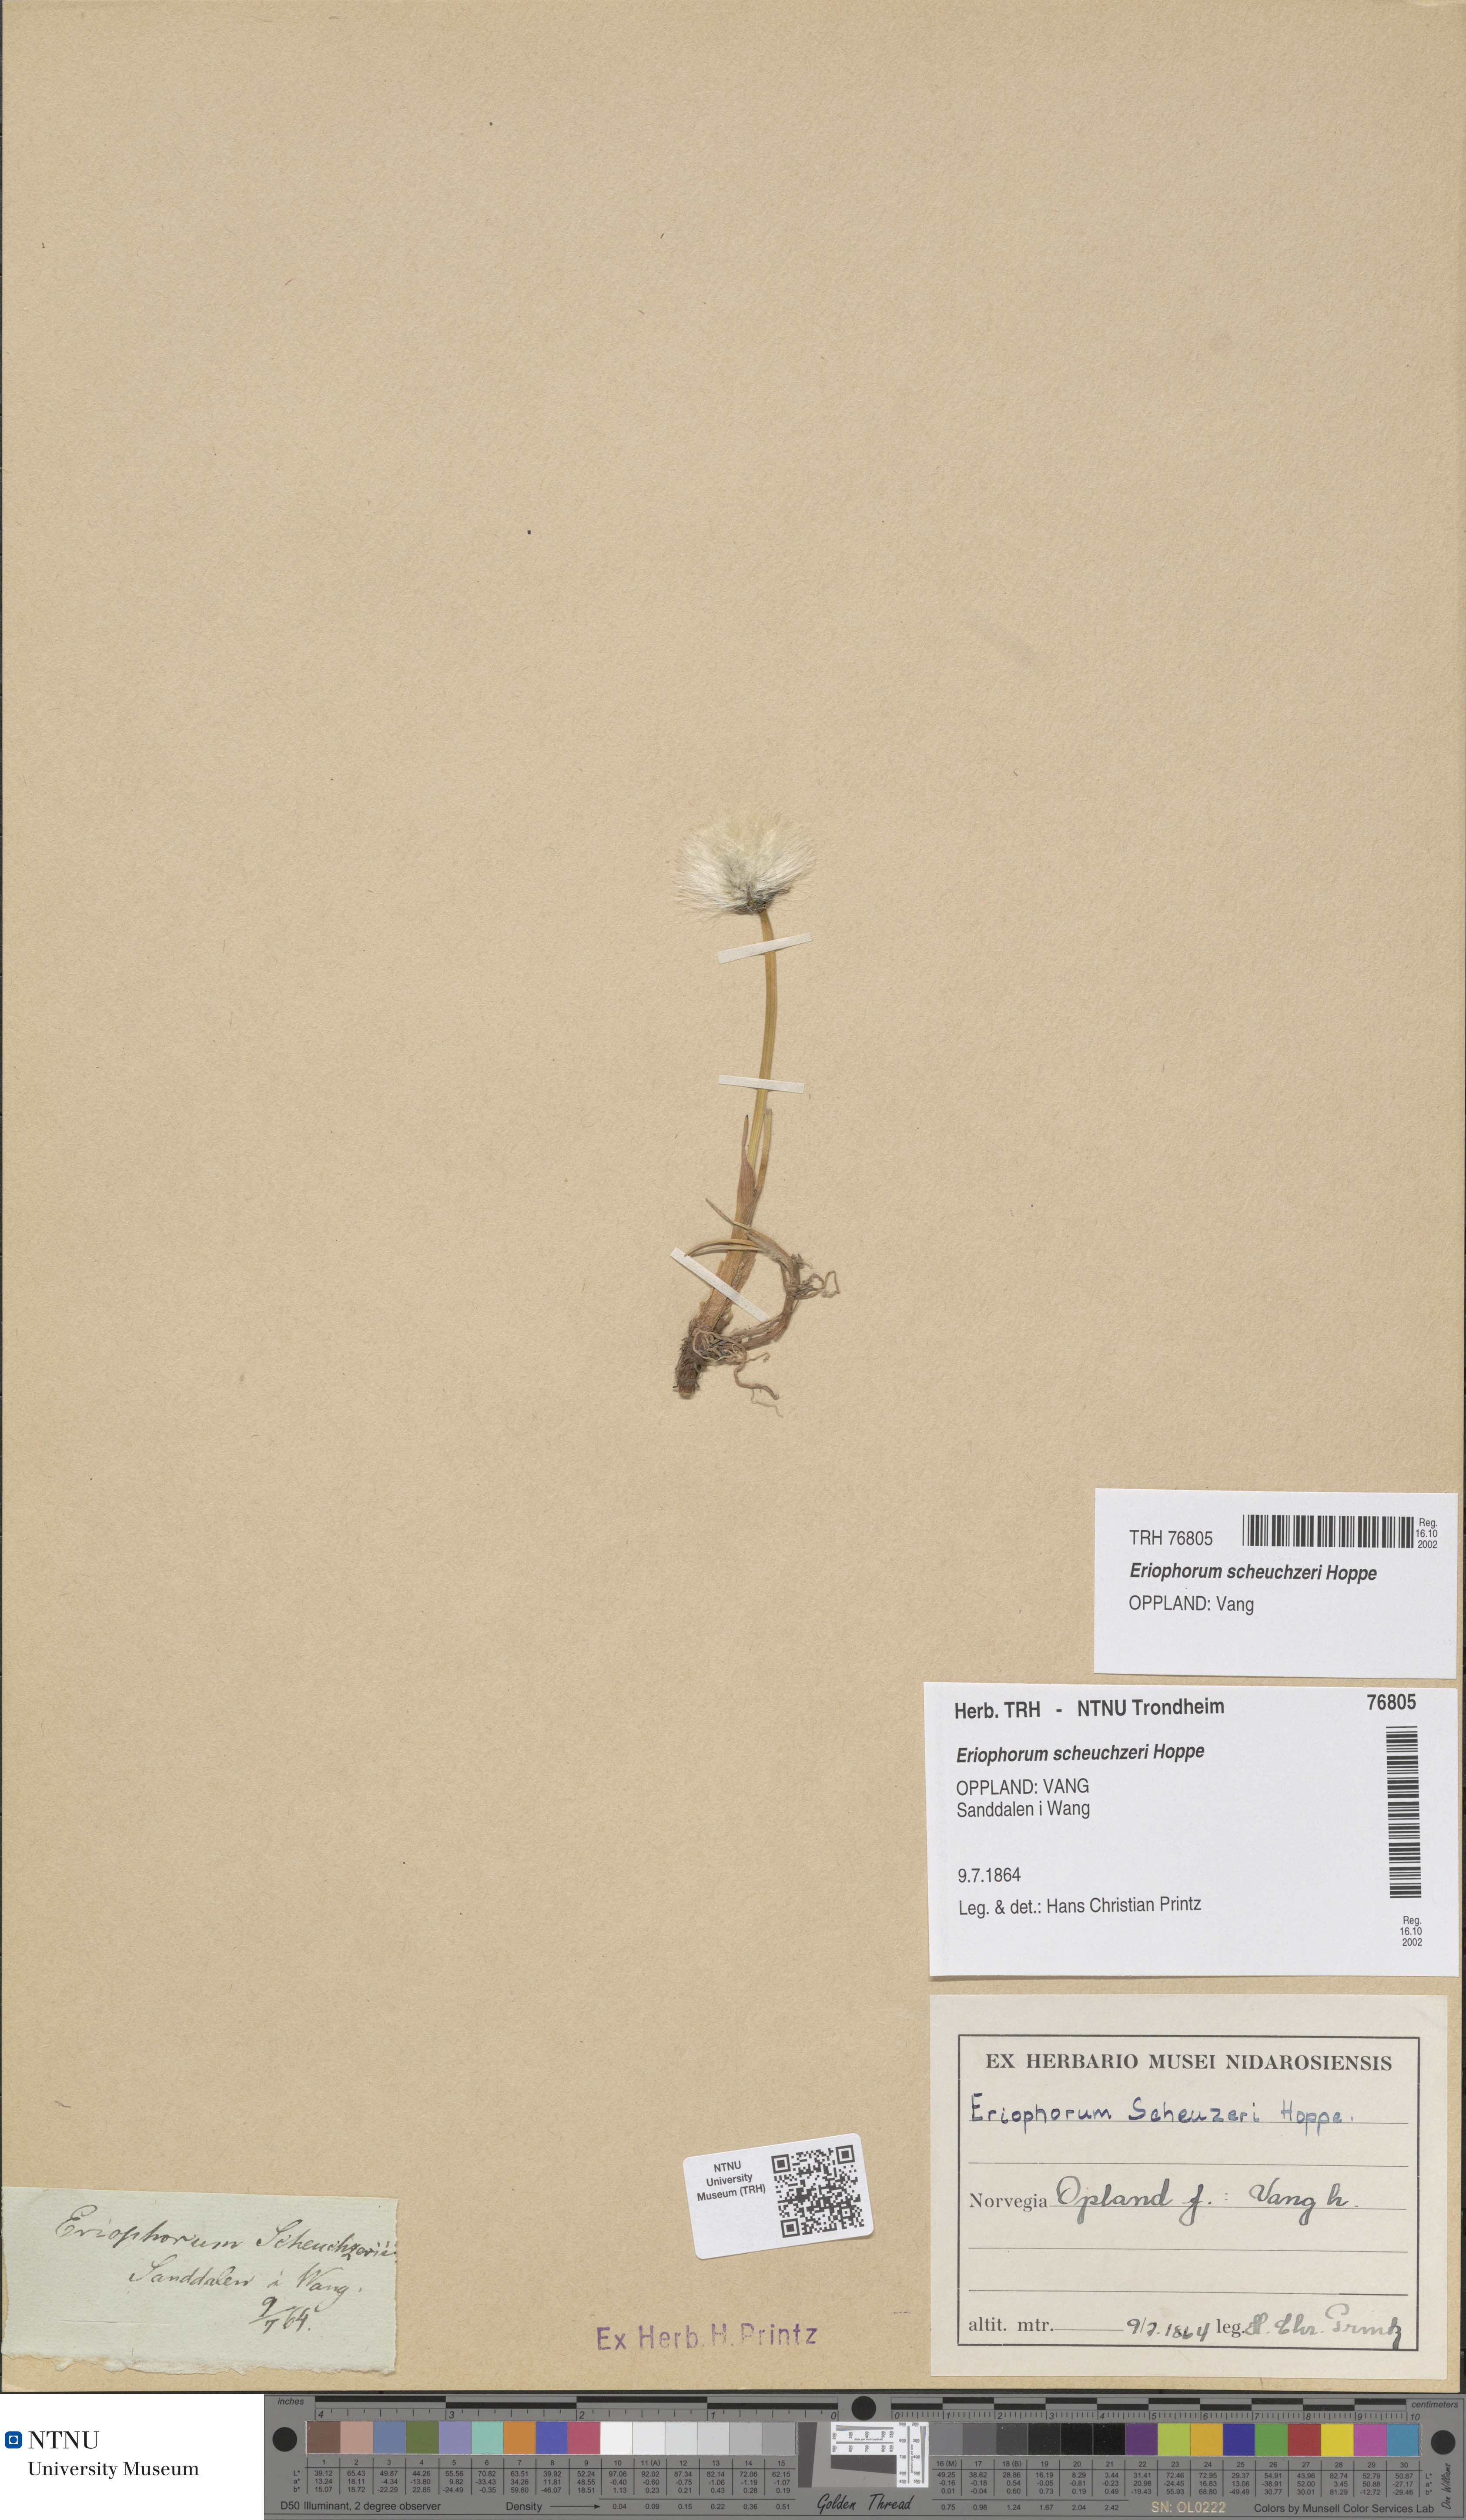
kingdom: Plantae
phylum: Tracheophyta
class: Liliopsida
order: Poales
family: Cyperaceae
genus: Eriophorum
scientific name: Eriophorum scheuchzeri
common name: Scheuchzer's cottongrass
